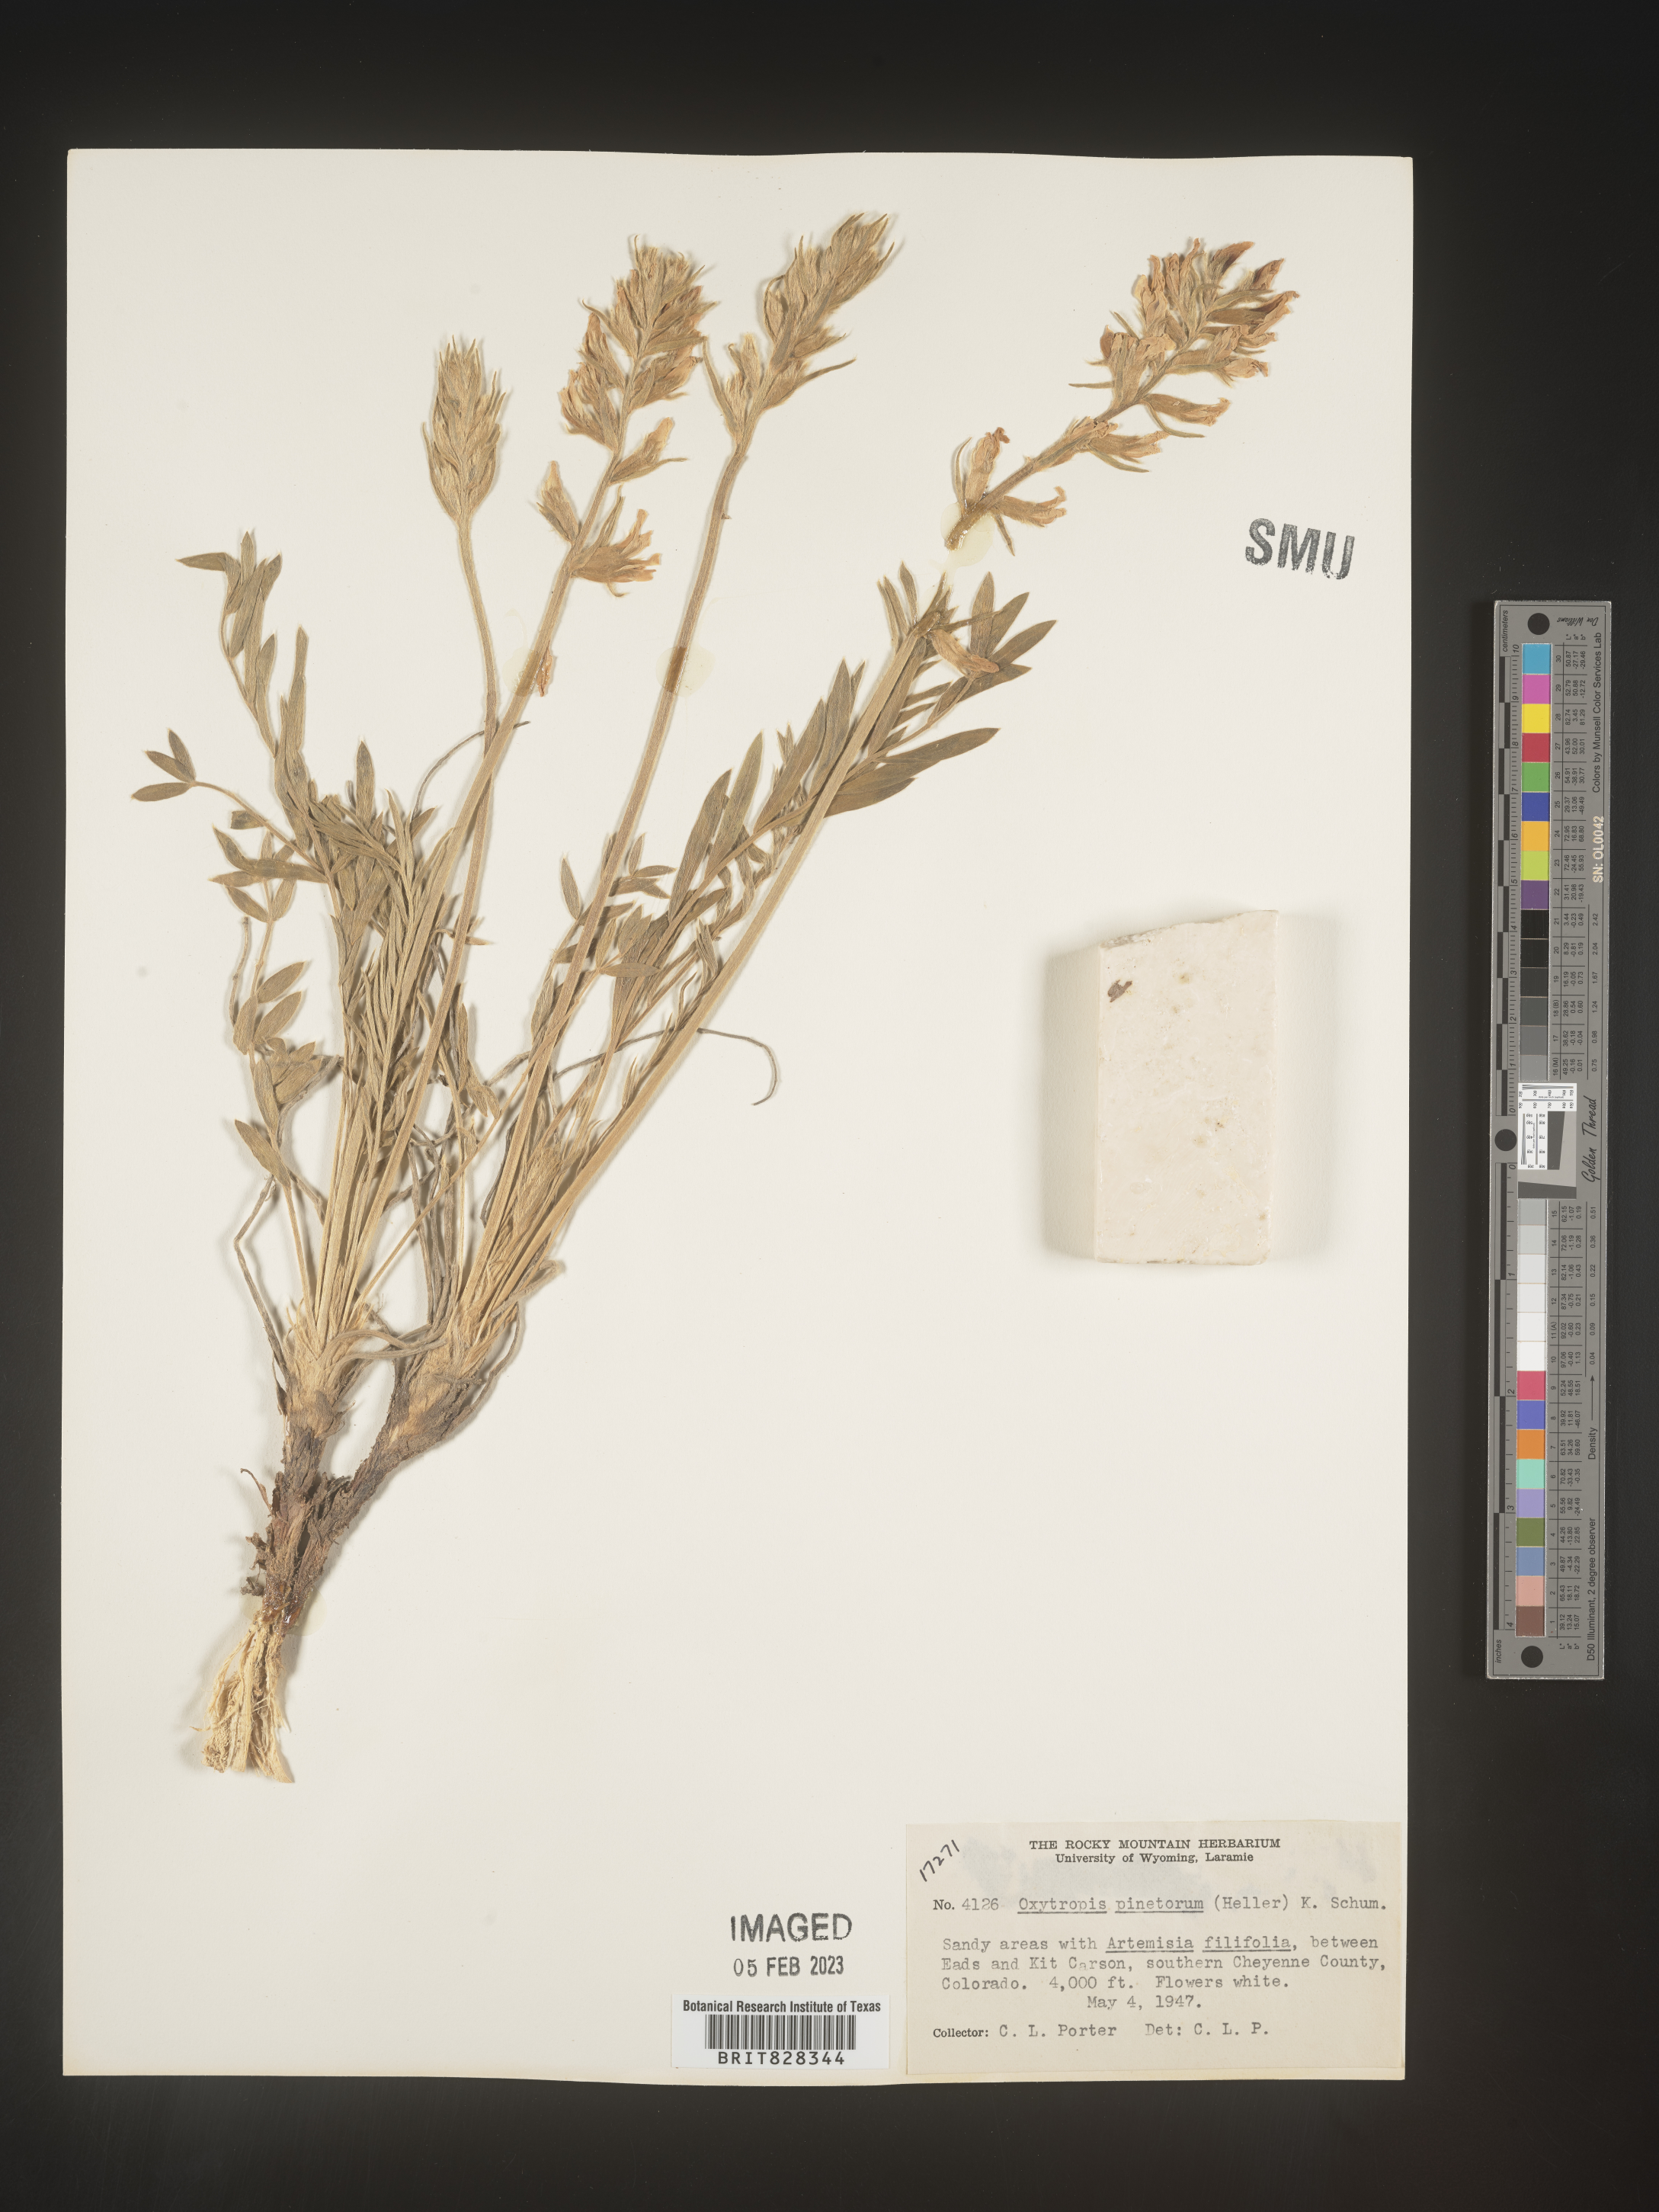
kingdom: Plantae
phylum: Tracheophyta
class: Magnoliopsida
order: Fabales
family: Fabaceae
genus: Oxytropis
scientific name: Oxytropis
